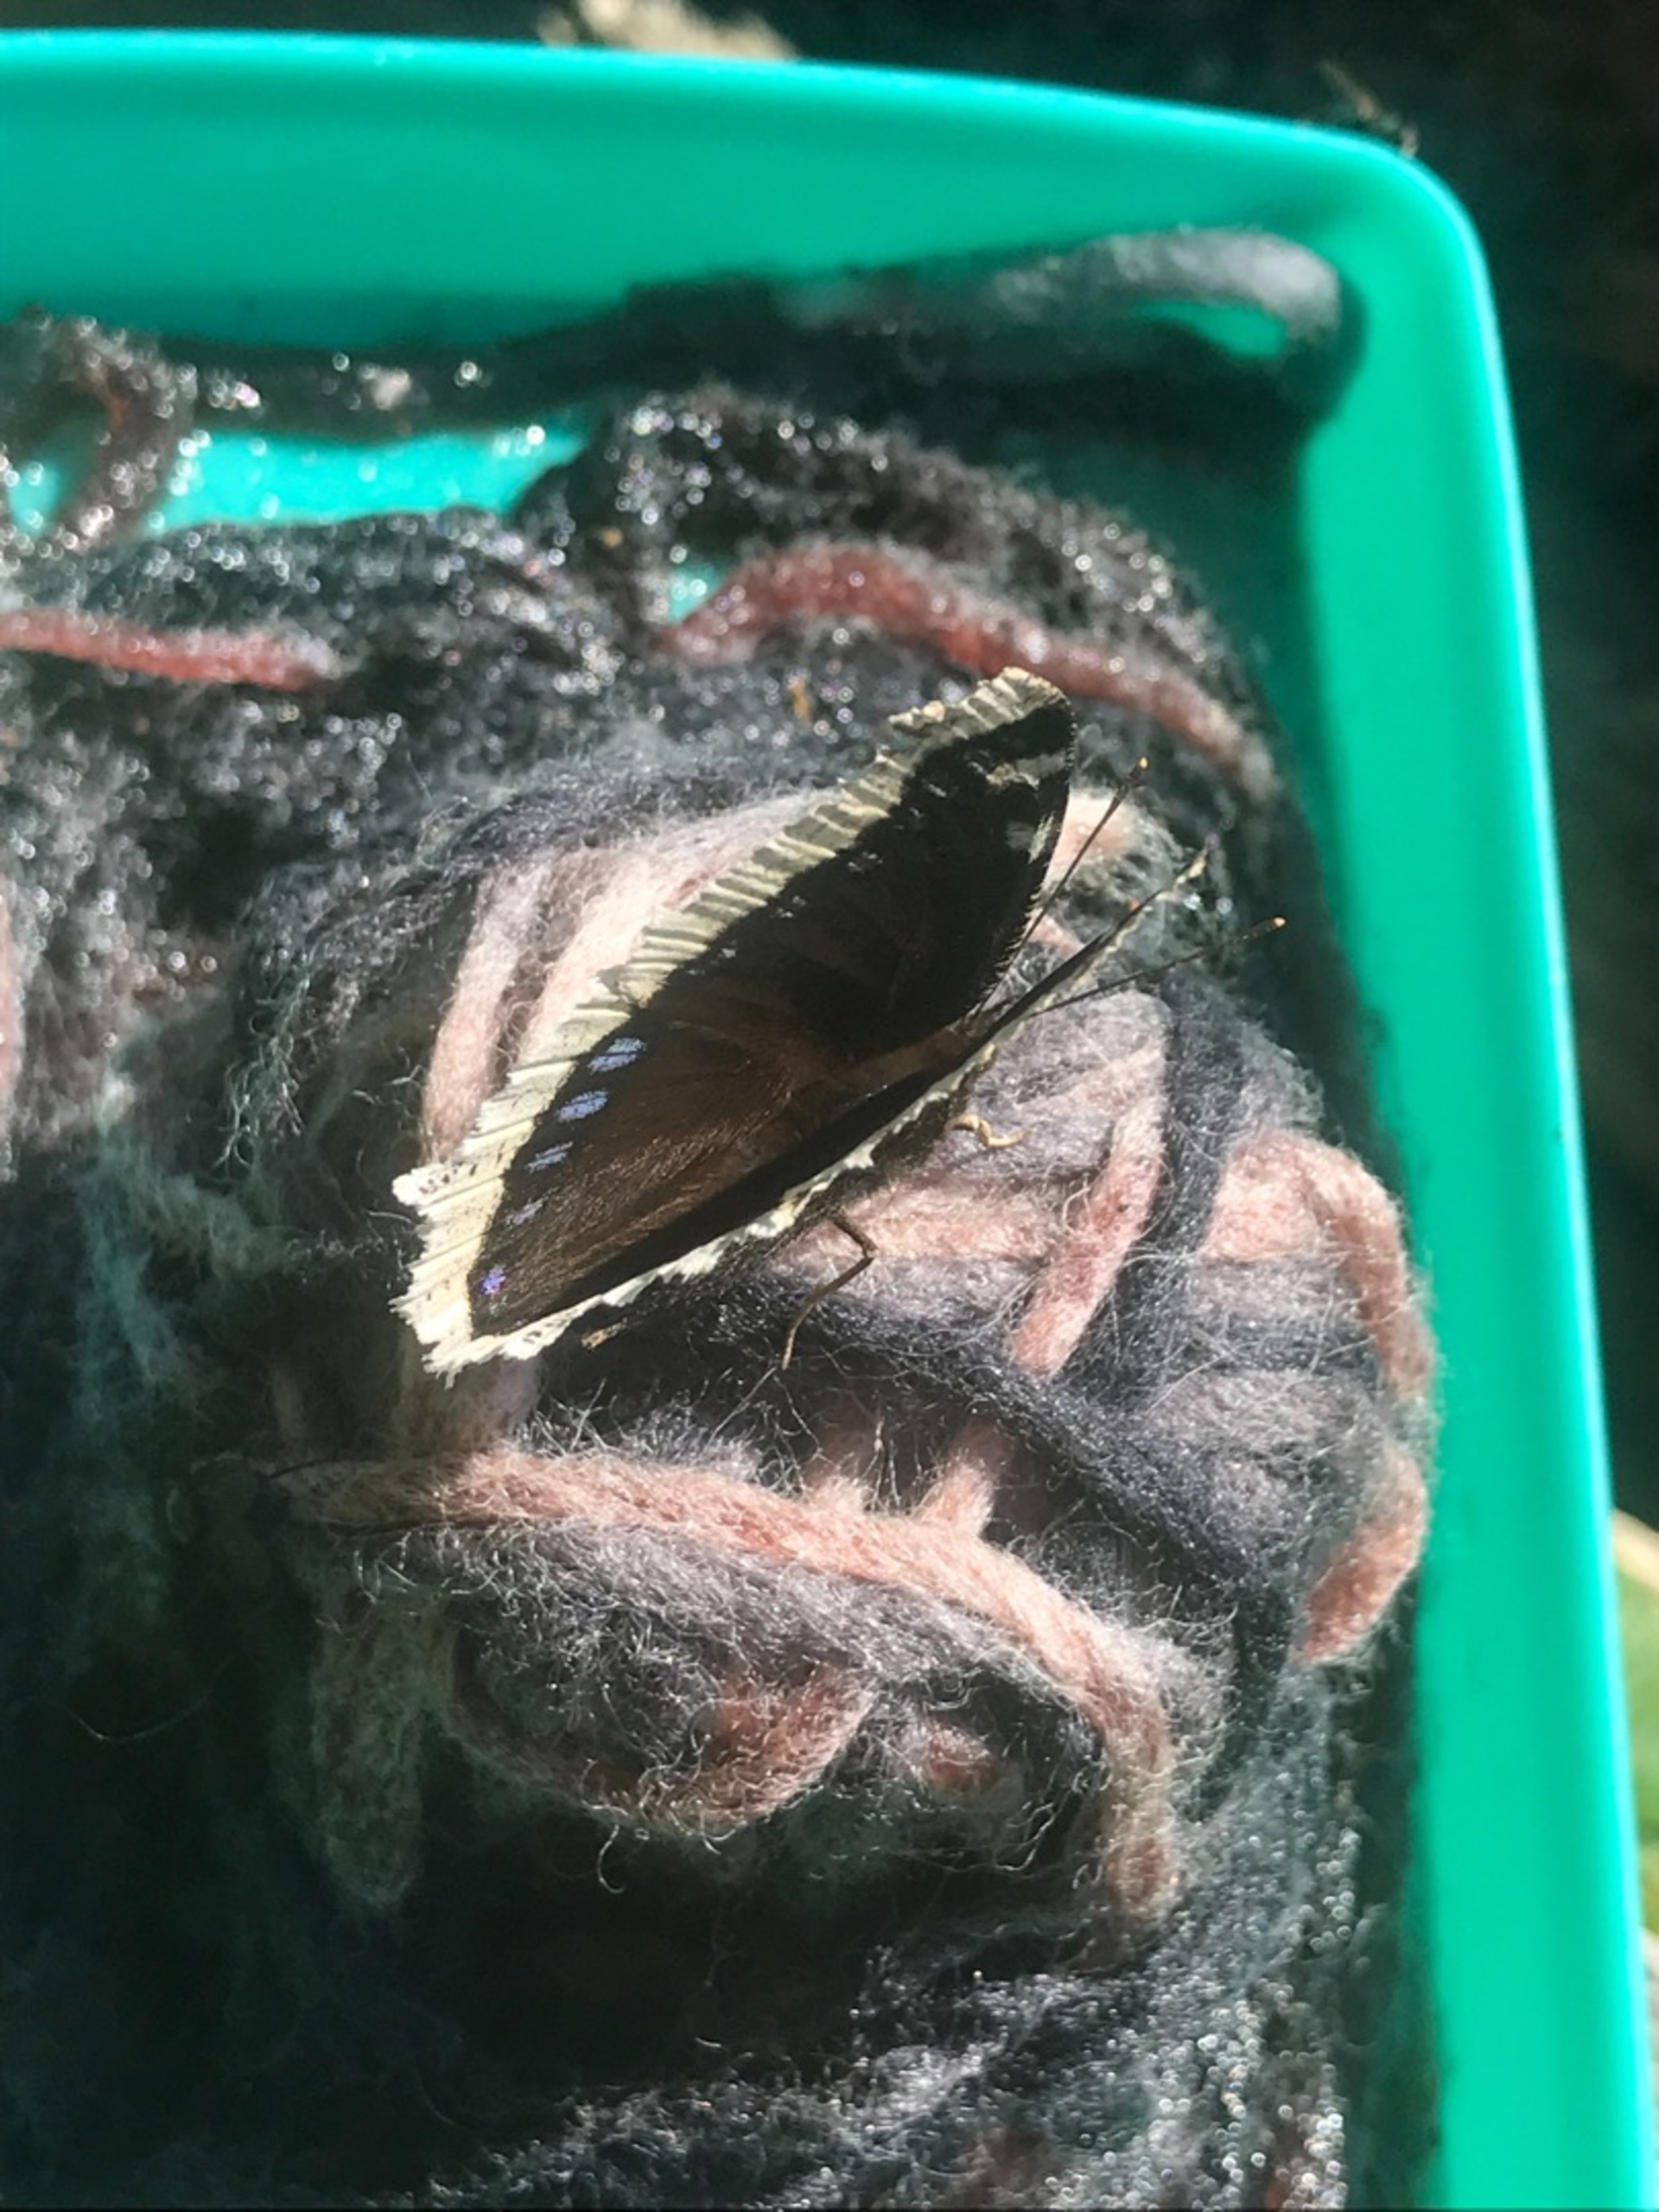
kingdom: Animalia
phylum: Arthropoda
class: Insecta
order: Lepidoptera
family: Nymphalidae
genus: Nymphalis
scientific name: Nymphalis antiopa
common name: Sørgekåbe
